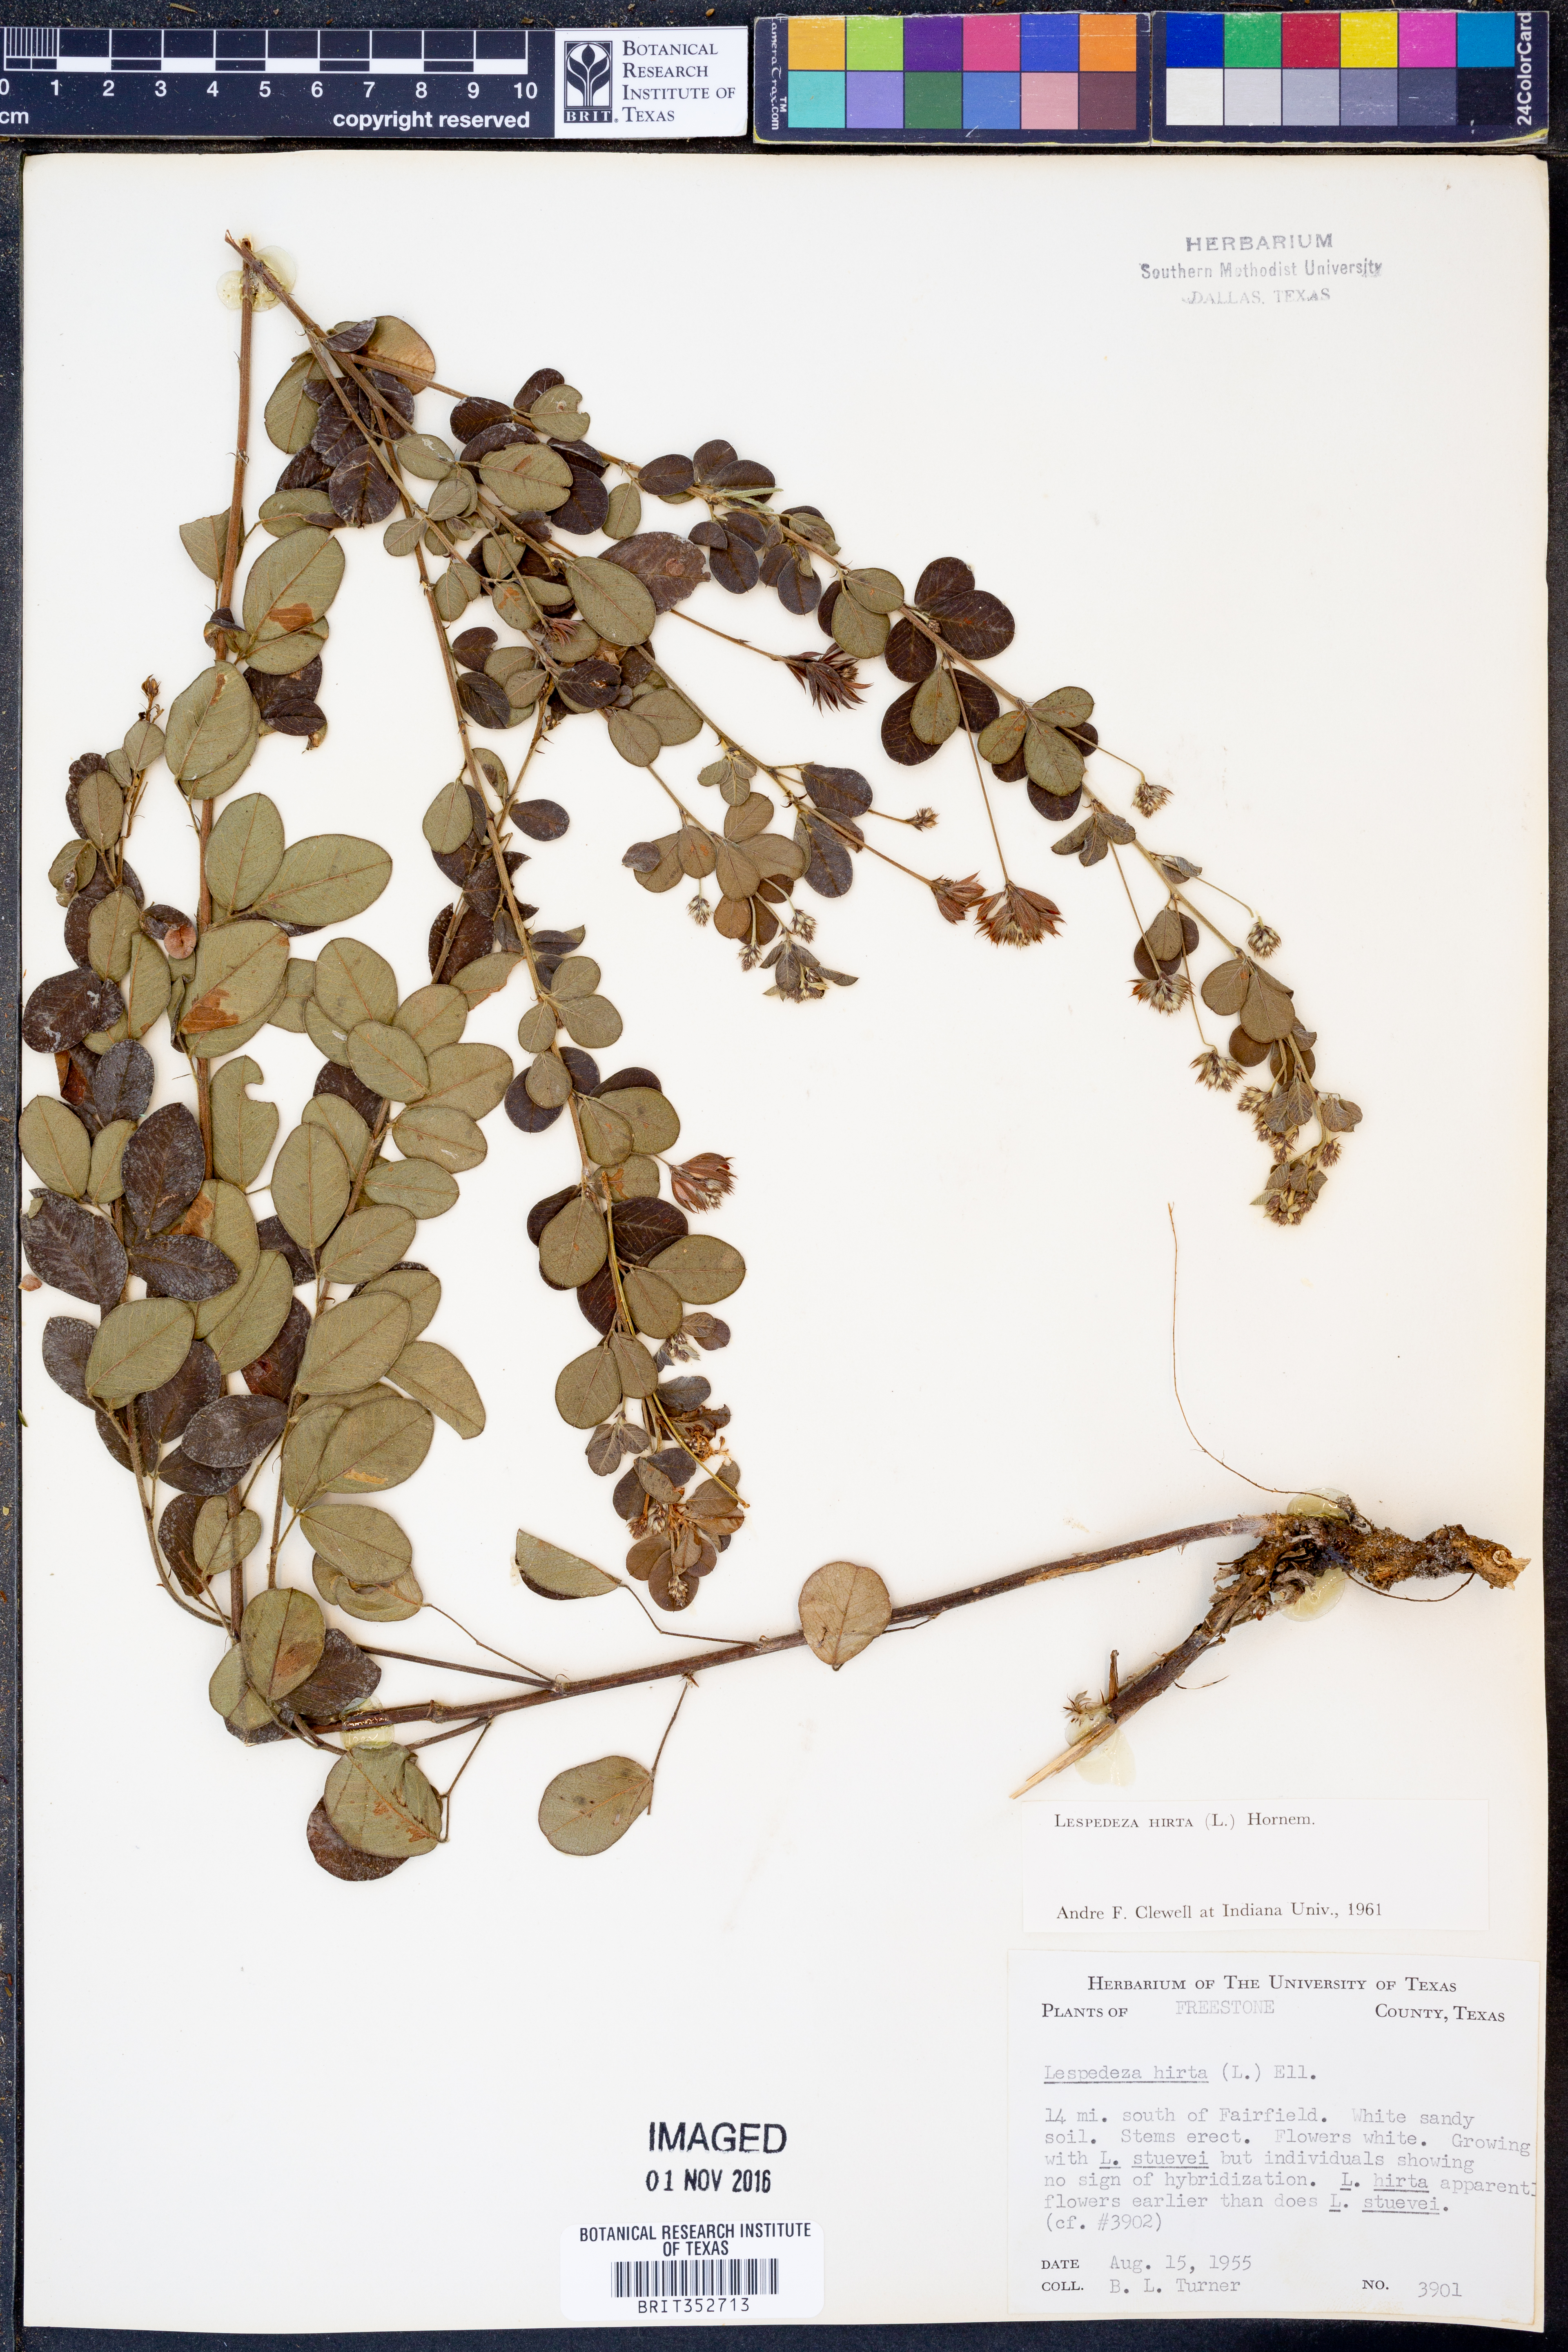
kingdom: Plantae
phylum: Tracheophyta
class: Magnoliopsida
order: Fabales
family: Fabaceae
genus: Lespedeza
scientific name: Lespedeza hirta
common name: Hairy lespedeza
